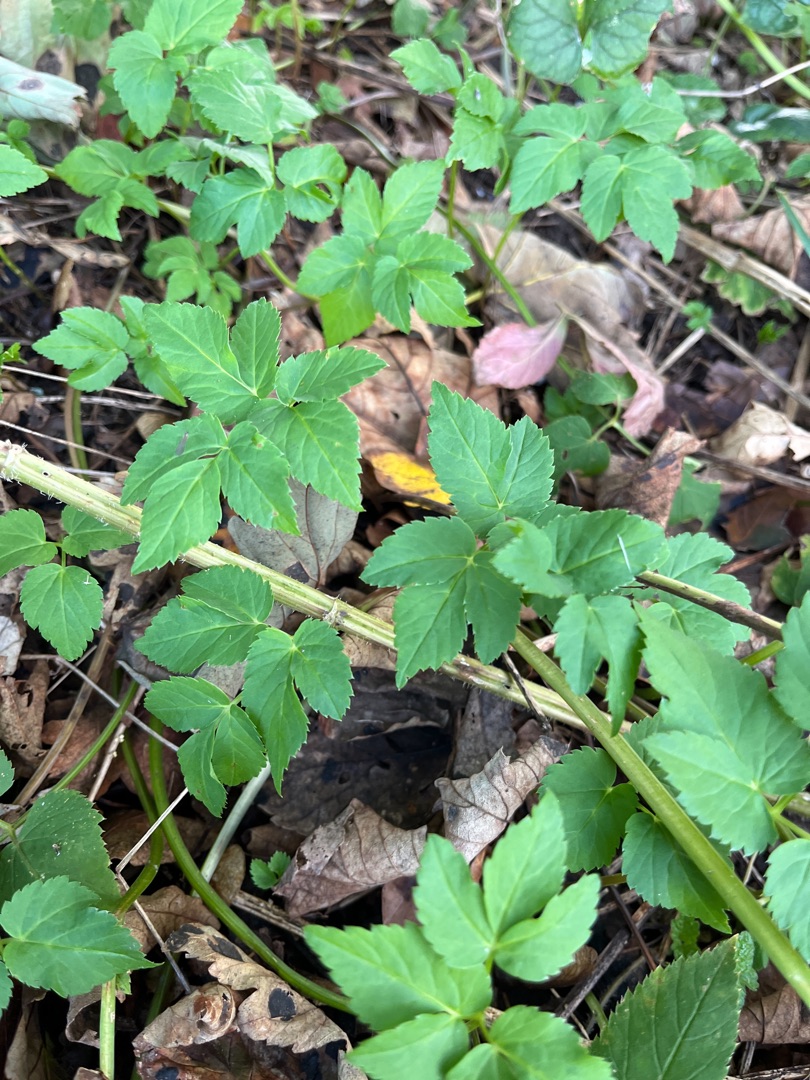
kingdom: Plantae
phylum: Tracheophyta
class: Magnoliopsida
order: Apiales
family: Apiaceae
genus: Aegopodium
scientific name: Aegopodium podagraria
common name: Skvalderkål
